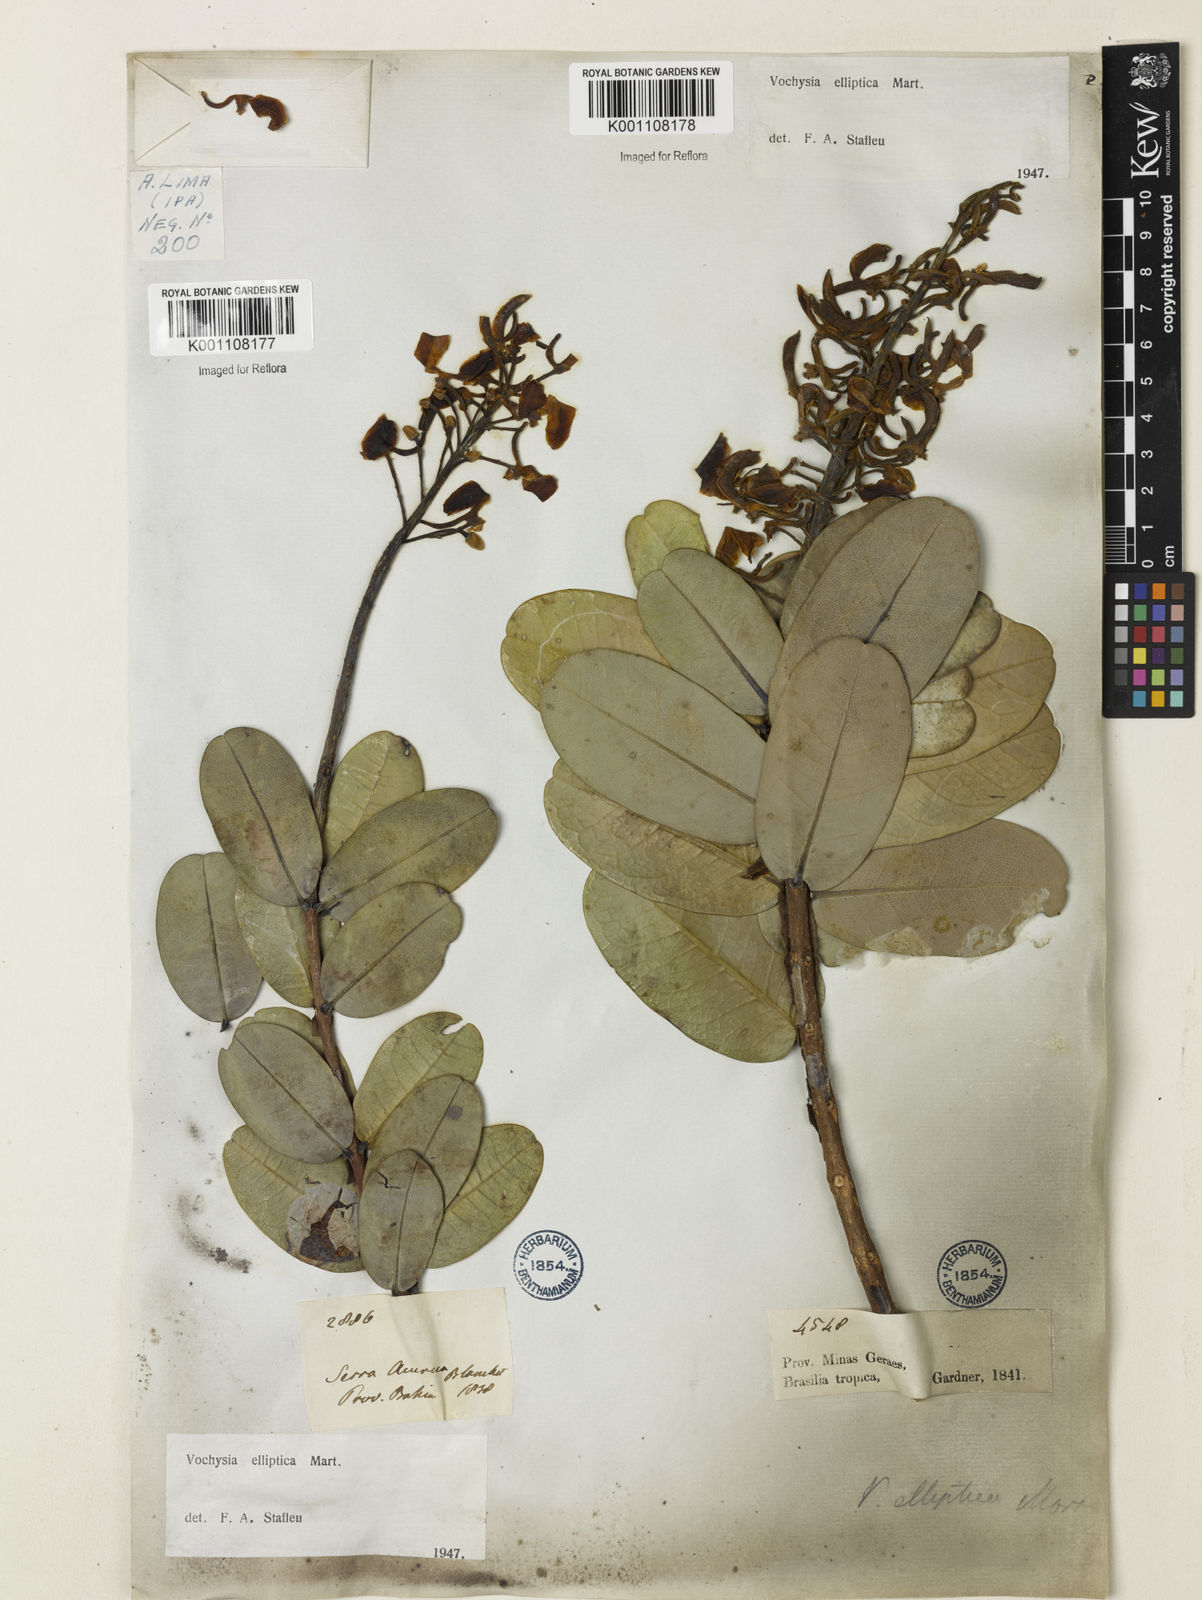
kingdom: Plantae
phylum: Tracheophyta
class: Magnoliopsida
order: Myrtales
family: Vochysiaceae
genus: Vochysia
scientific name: Vochysia elliptica
